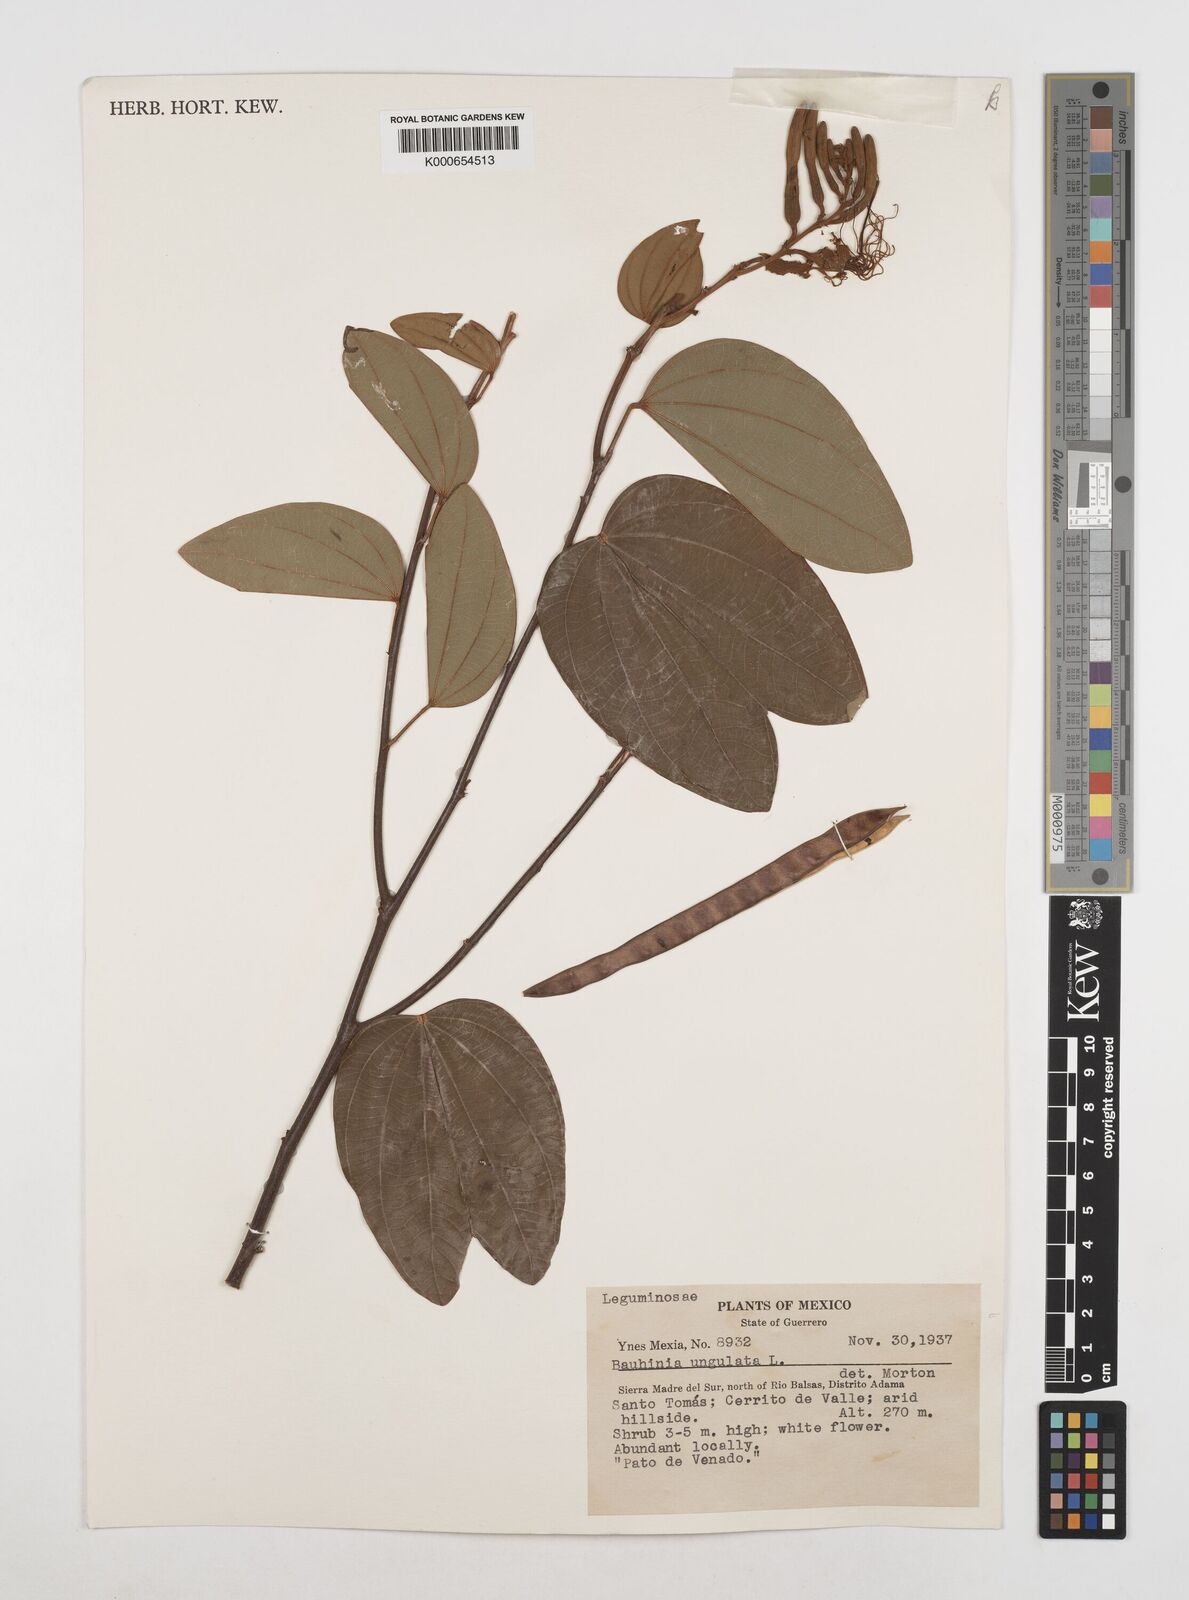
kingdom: Plantae
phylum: Tracheophyta
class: Magnoliopsida
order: Fabales
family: Fabaceae
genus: Bauhinia
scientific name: Bauhinia ungulata
